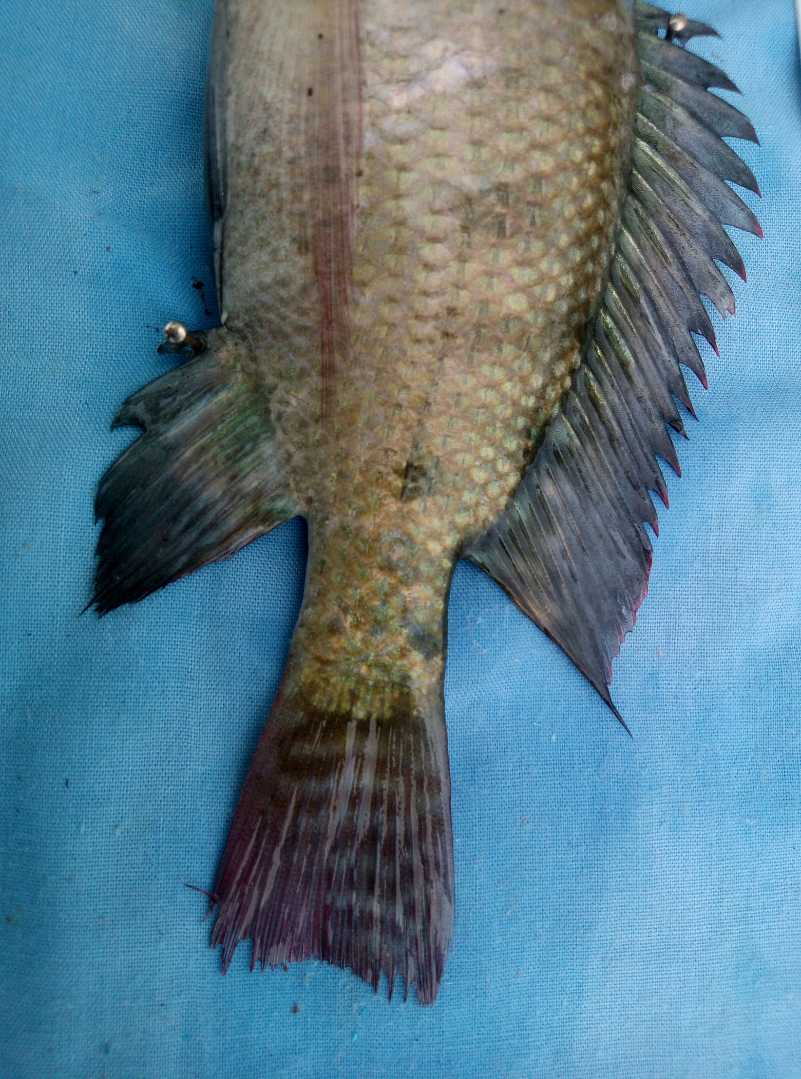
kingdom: Animalia
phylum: Chordata
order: Perciformes
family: Cichlidae
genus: Oreochromis
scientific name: Oreochromis niloticus
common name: Nile tilapia
